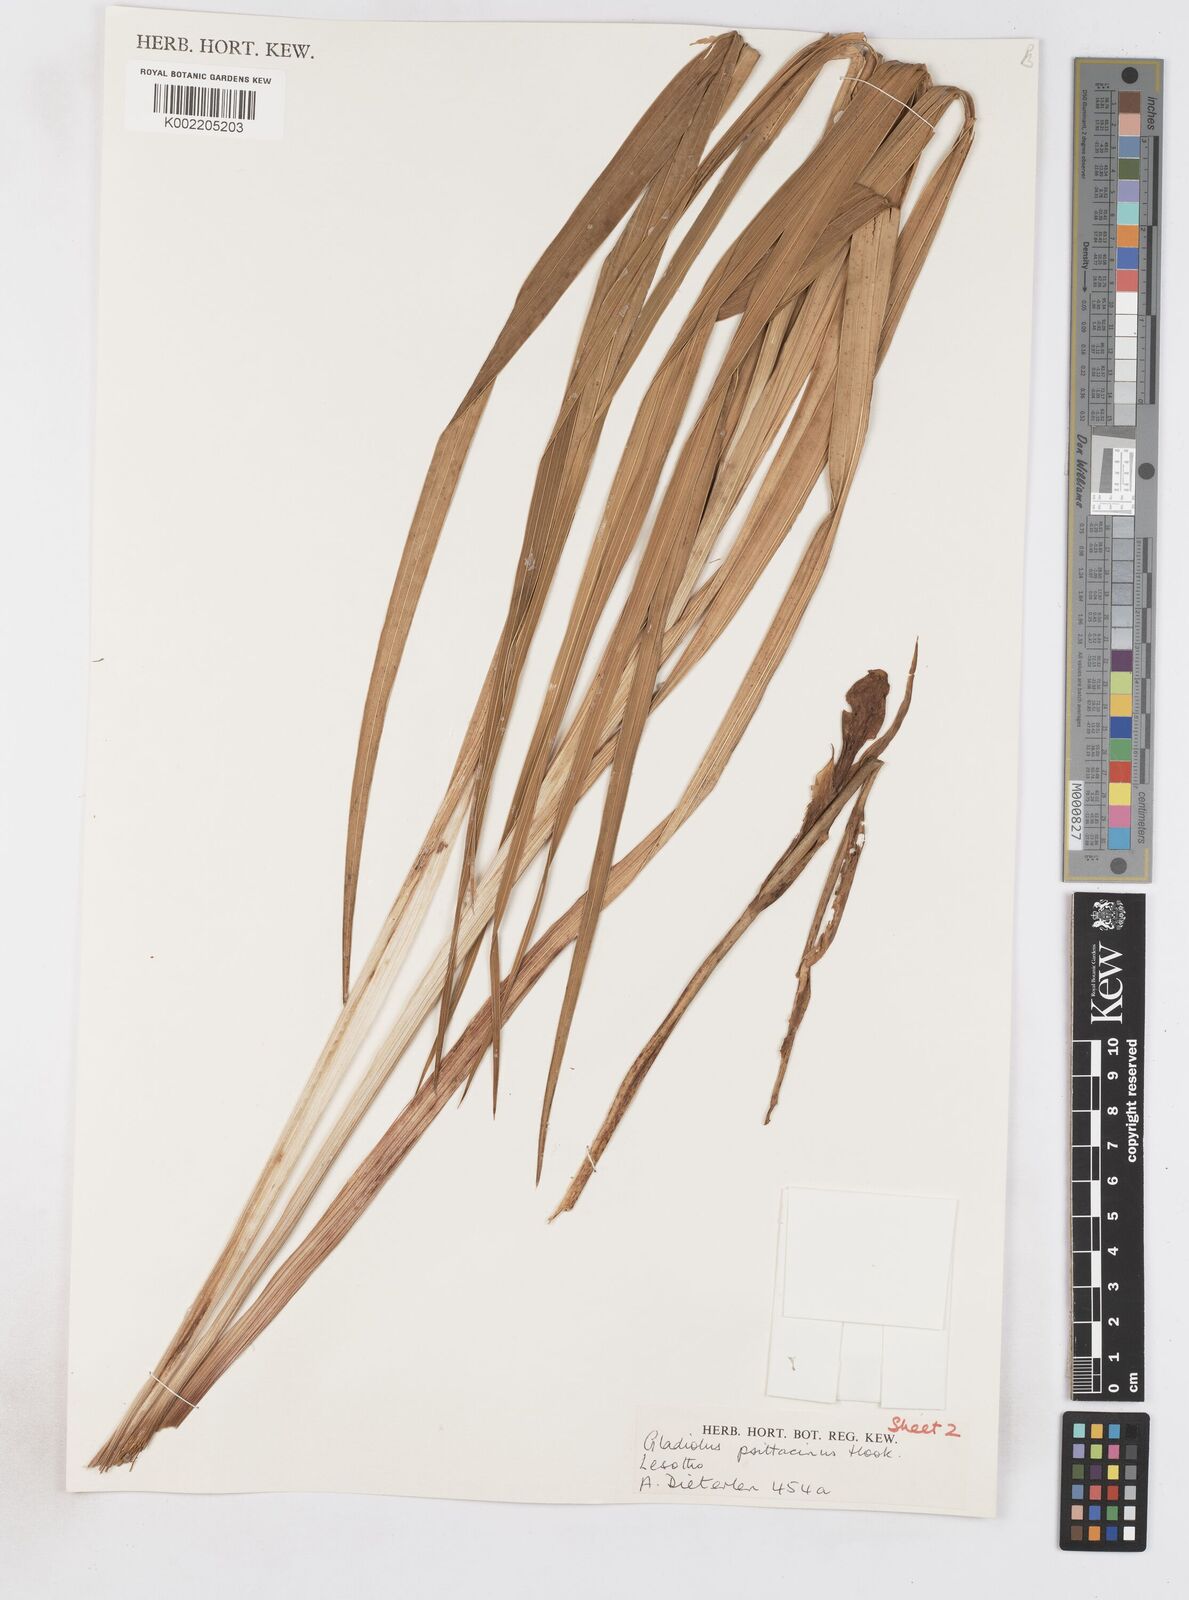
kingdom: Plantae
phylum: Tracheophyta
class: Liliopsida
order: Asparagales
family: Iridaceae
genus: Gladiolus
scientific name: Gladiolus dalenii
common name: Cornflag
